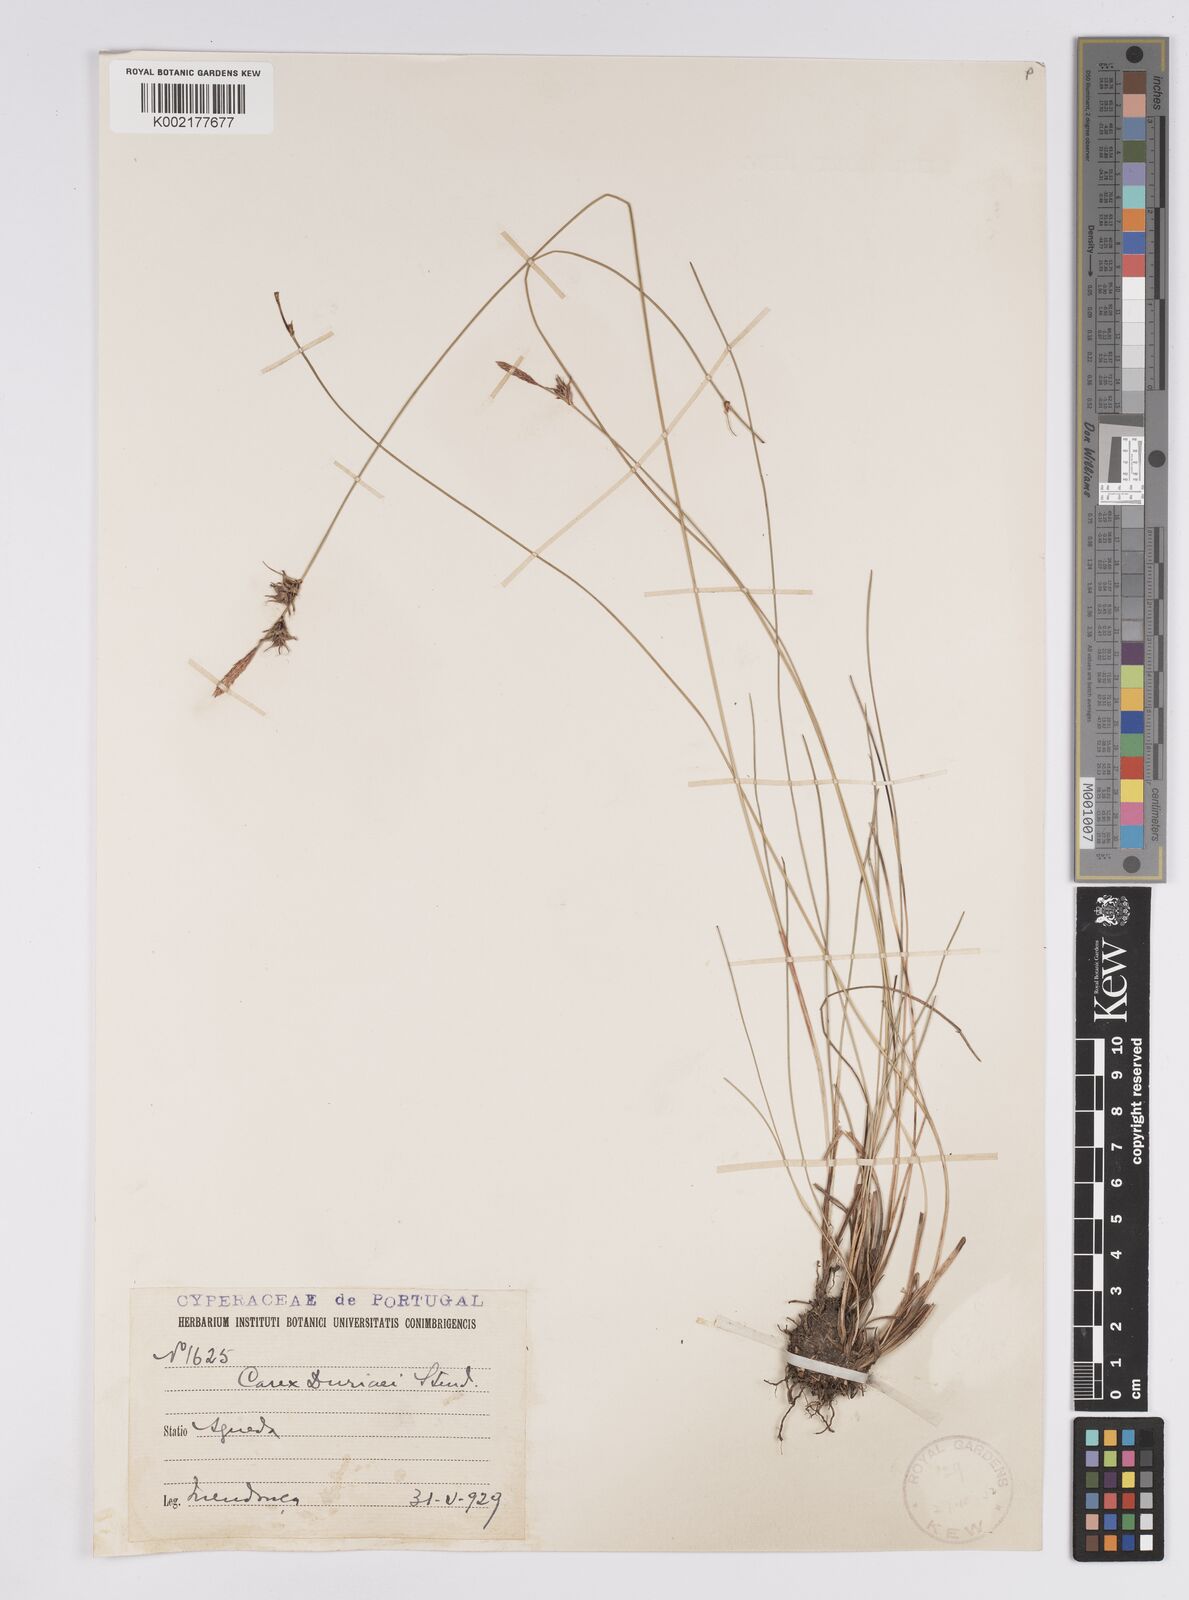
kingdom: Plantae
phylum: Tracheophyta
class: Liliopsida
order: Poales
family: Cyperaceae
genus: Carex
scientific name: Carex durieui
